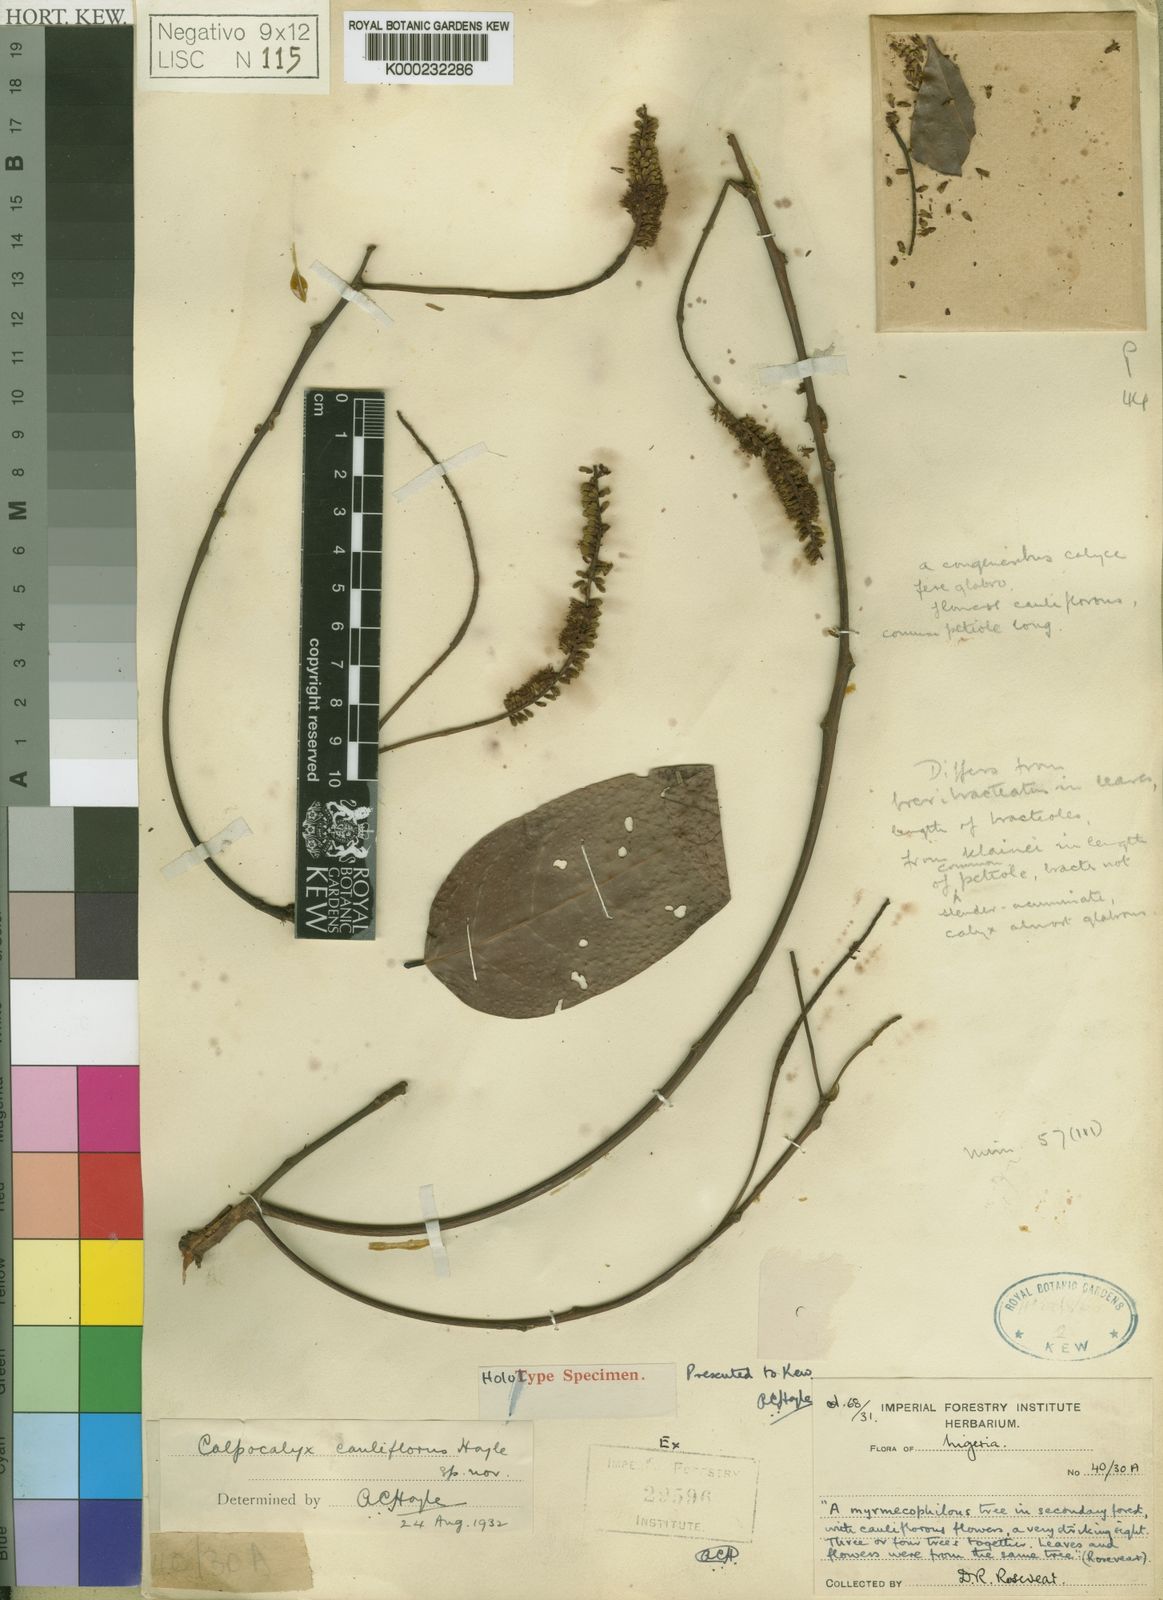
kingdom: Plantae
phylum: Tracheophyta
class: Magnoliopsida
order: Fabales
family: Fabaceae
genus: Calpocalyx
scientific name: Calpocalyx cauliflorus
